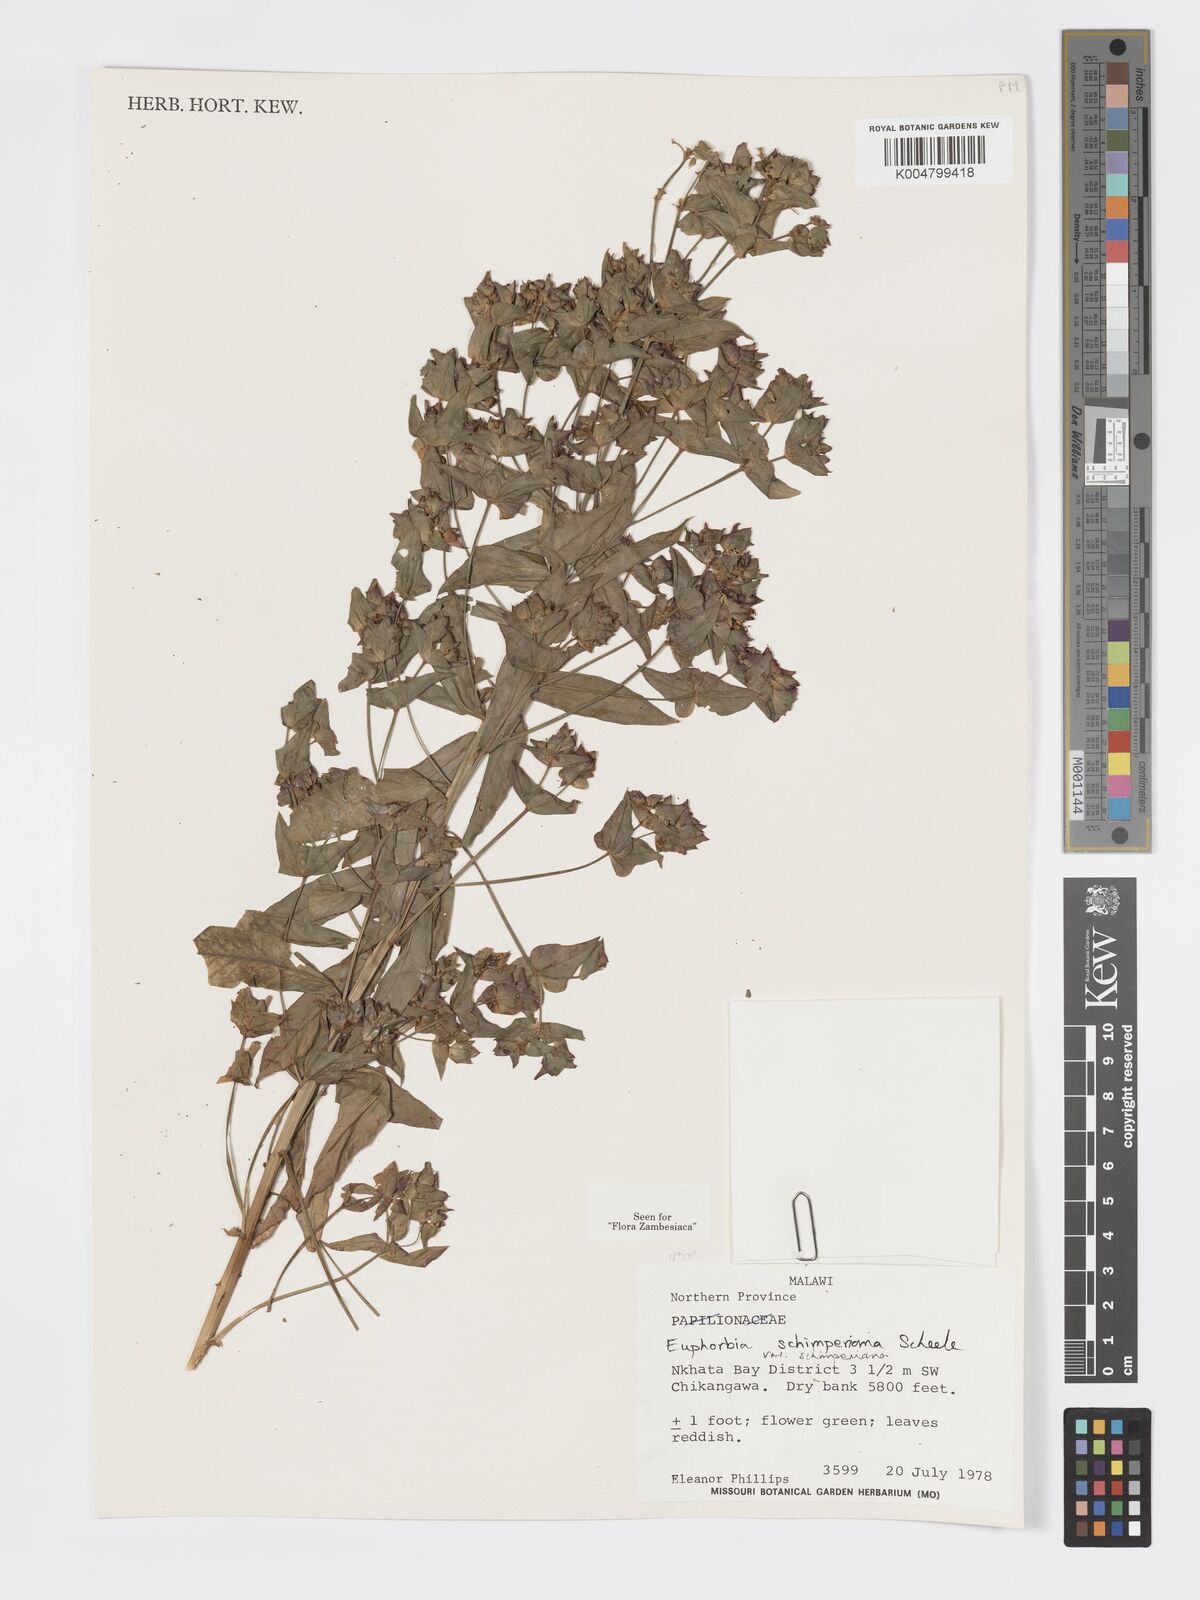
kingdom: Plantae
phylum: Tracheophyta
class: Magnoliopsida
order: Malpighiales
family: Euphorbiaceae
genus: Euphorbia
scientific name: Euphorbia schimperiana
